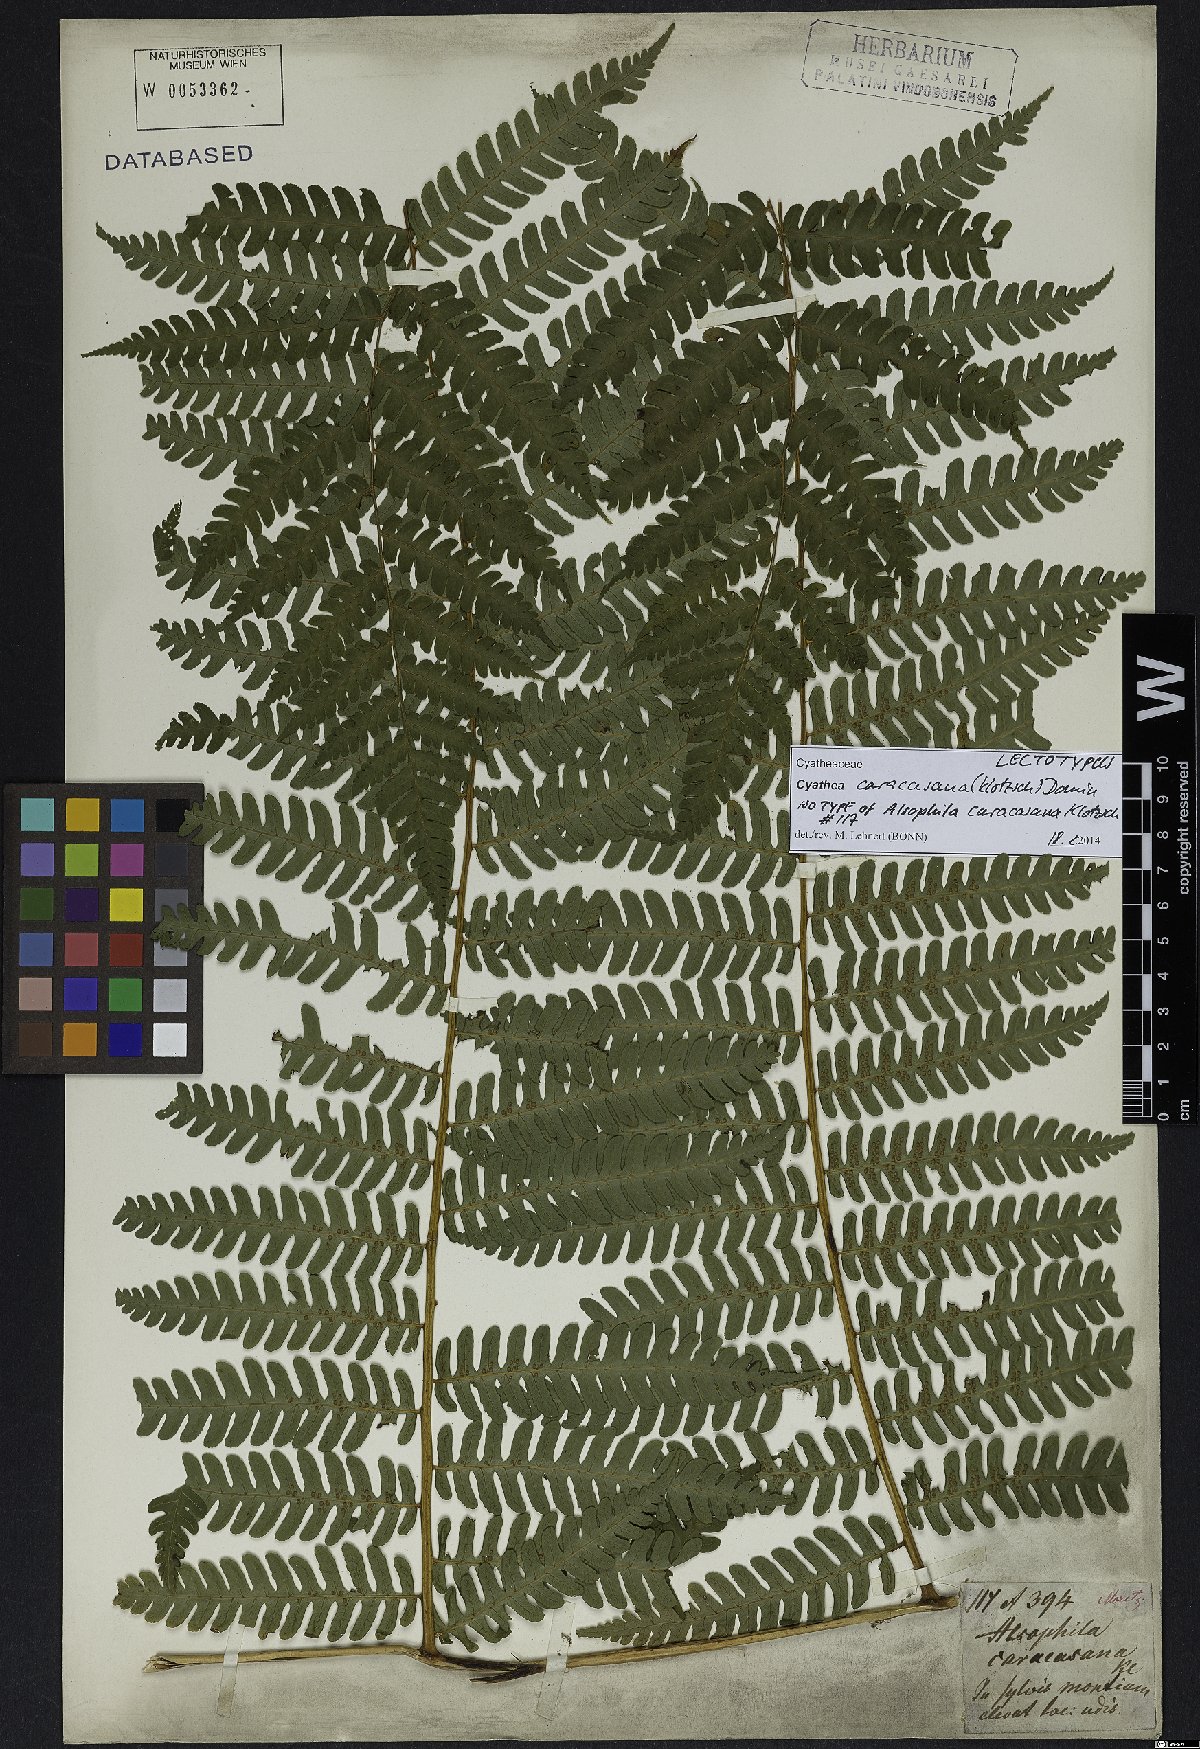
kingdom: Plantae
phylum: Tracheophyta
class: Polypodiopsida
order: Cyatheales
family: Cyatheaceae
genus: Cyathea
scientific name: Cyathea caracasana
